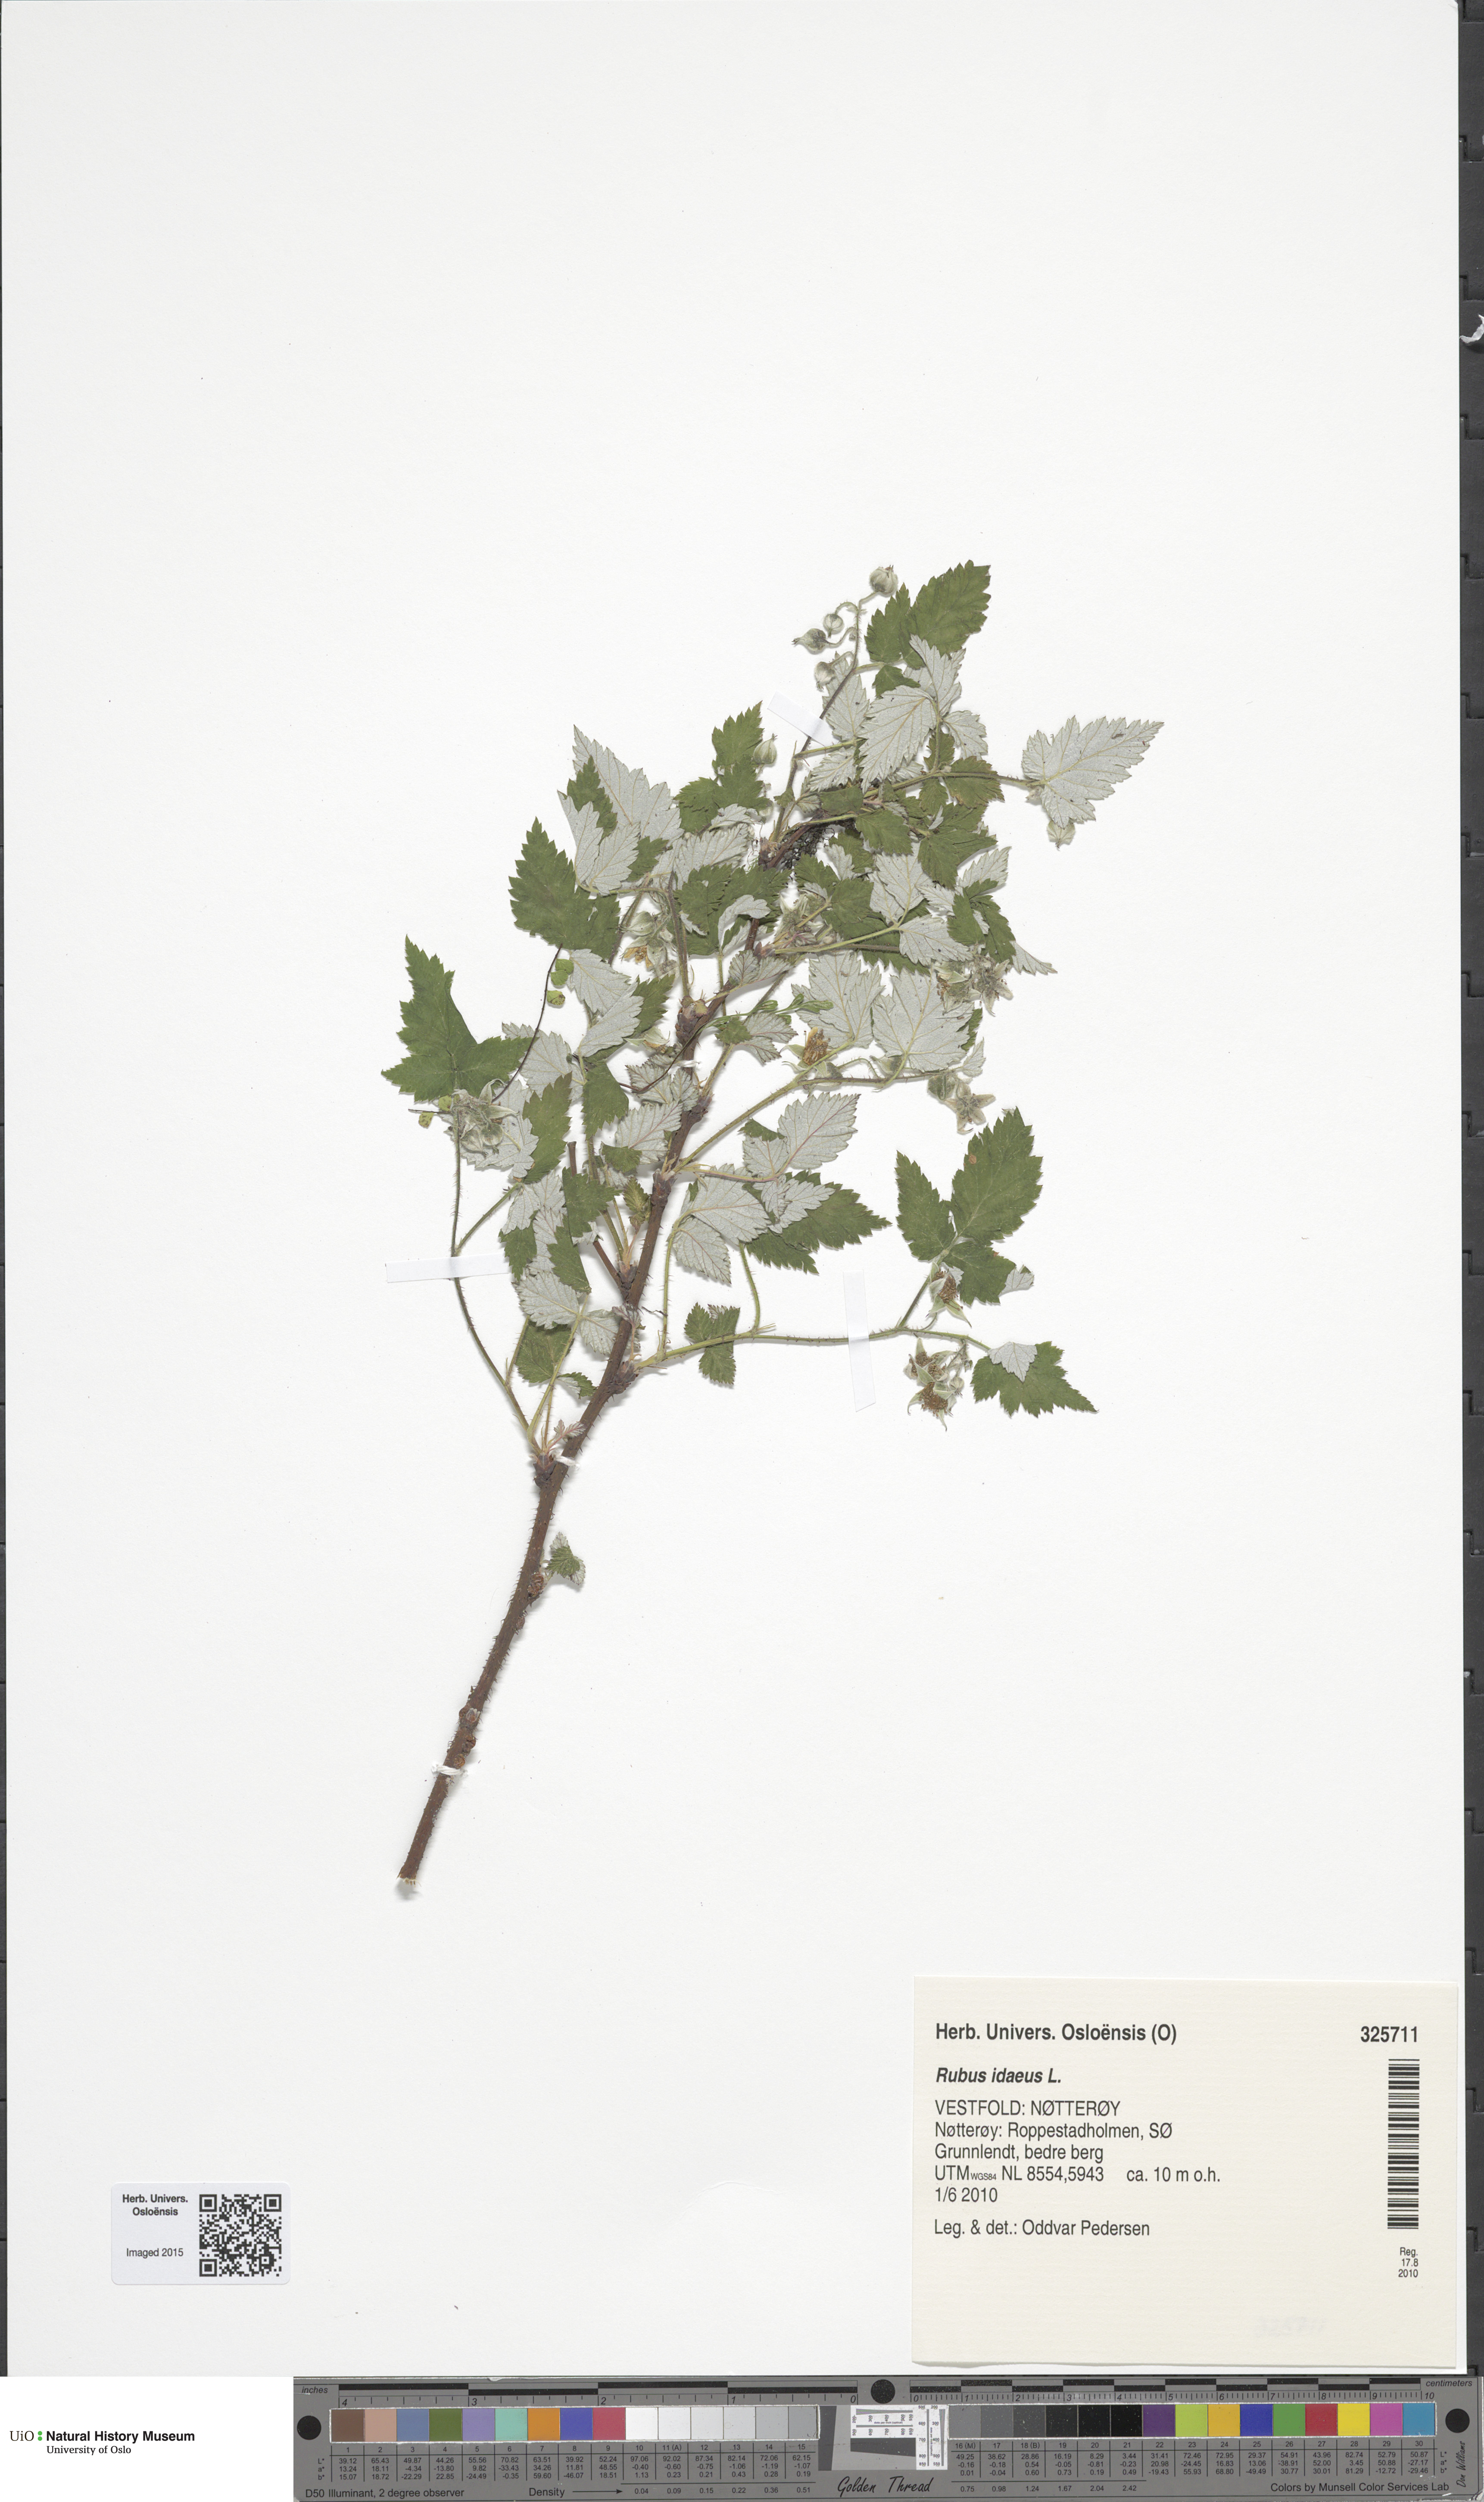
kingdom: Plantae
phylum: Tracheophyta
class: Magnoliopsida
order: Rosales
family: Rosaceae
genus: Rubus
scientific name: Rubus idaeus
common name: Raspberry
